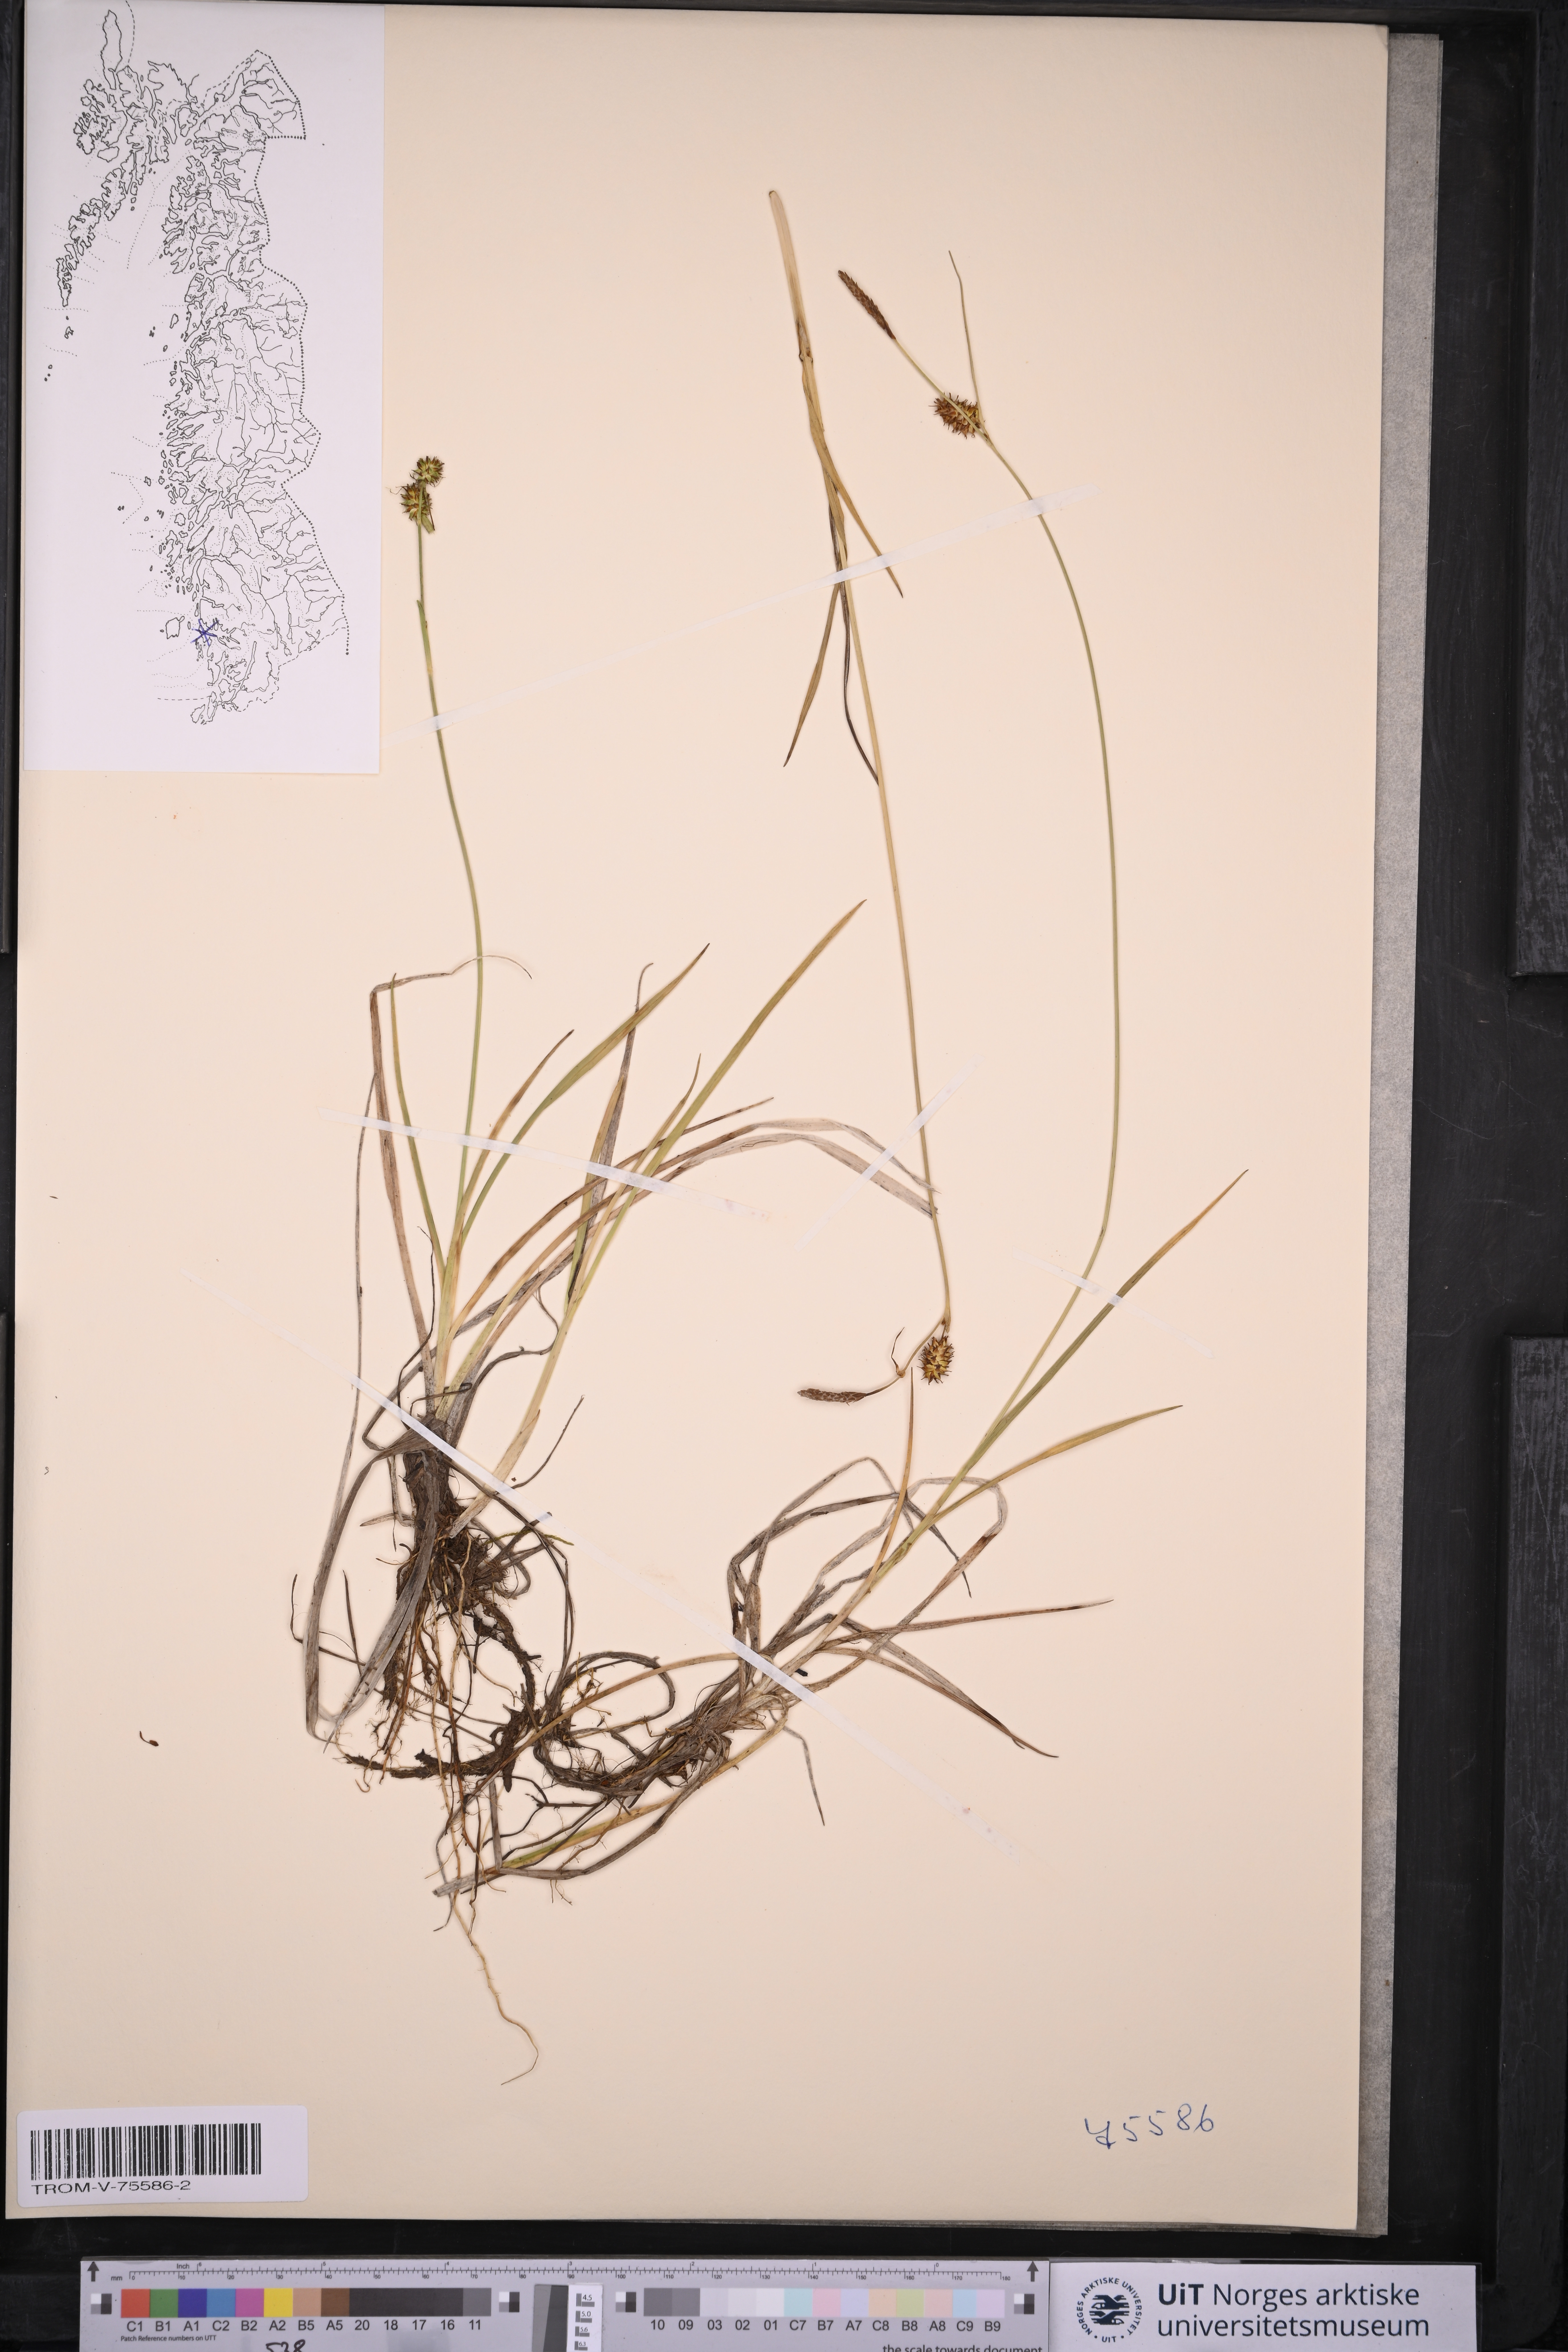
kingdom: Plantae
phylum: Tracheophyta
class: Liliopsida
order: Poales
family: Cyperaceae
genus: Carex
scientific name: Carex lepidocarpa
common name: Long-stalked yellow-sedge
